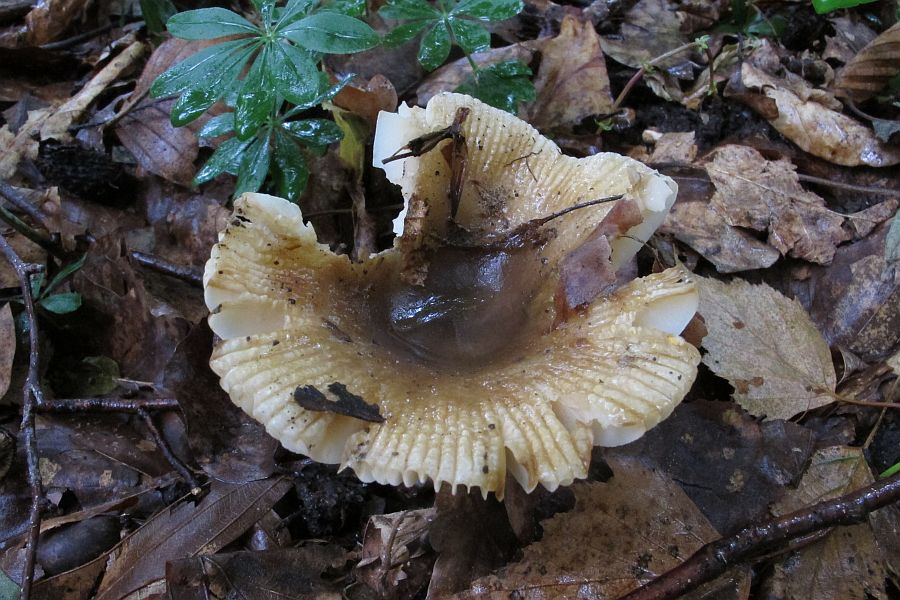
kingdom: Fungi
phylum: Basidiomycota
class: Agaricomycetes
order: Russulales
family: Russulaceae
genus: Russula
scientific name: Russula recondita
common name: mild kam-skørhat
